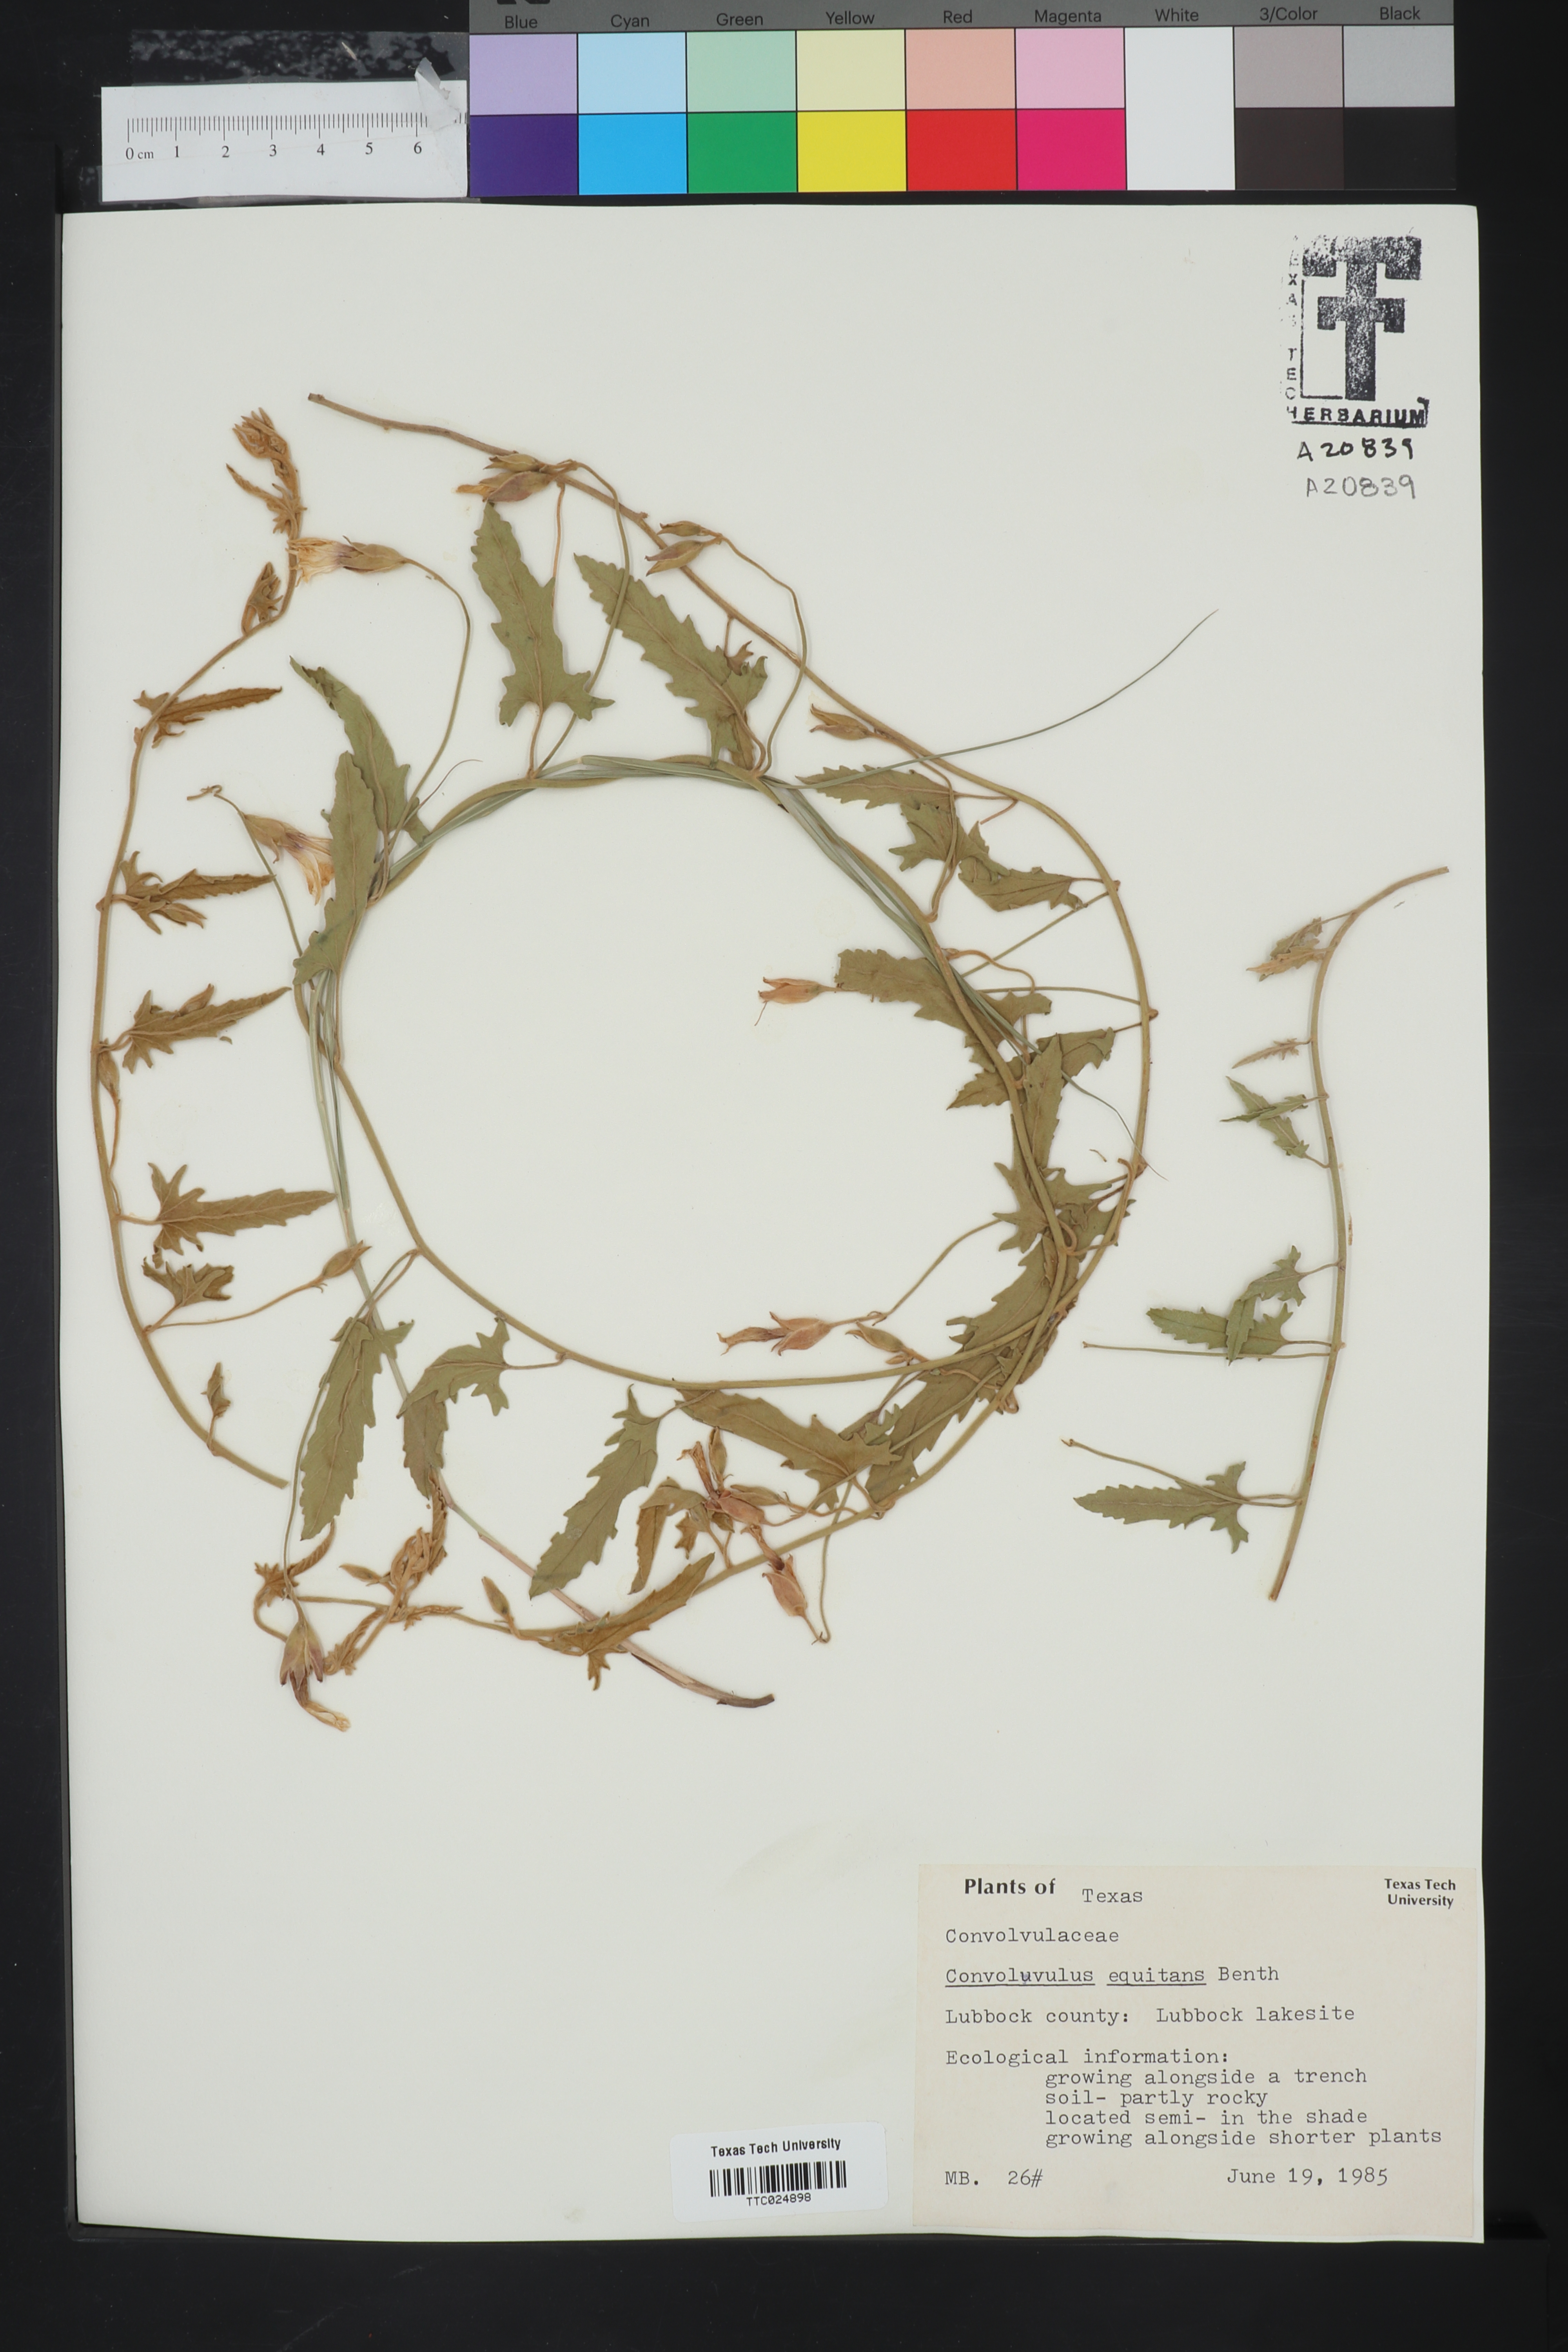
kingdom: Plantae
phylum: Tracheophyta
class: Magnoliopsida
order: Solanales
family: Convolvulaceae
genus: Convolvulus
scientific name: Convolvulus equitans
